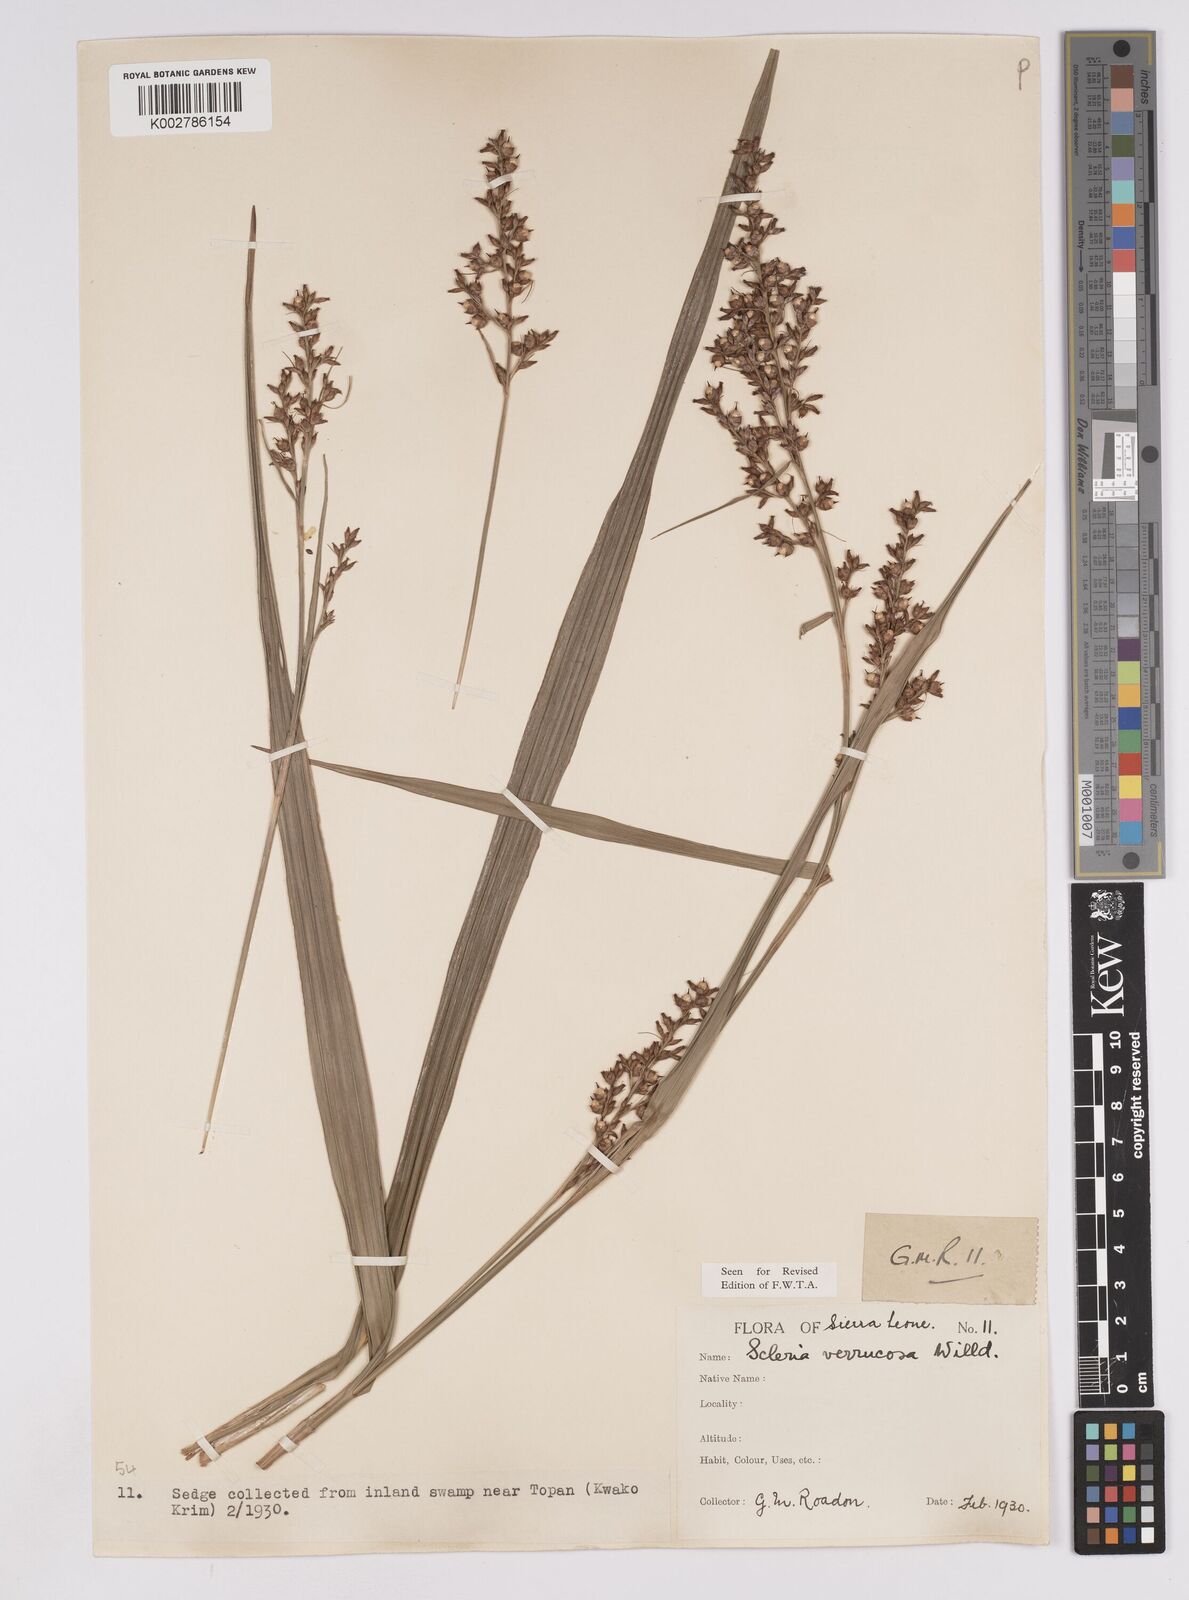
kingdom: Plantae
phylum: Tracheophyta
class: Liliopsida
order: Poales
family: Cyperaceae
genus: Scleria
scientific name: Scleria verrucosa
